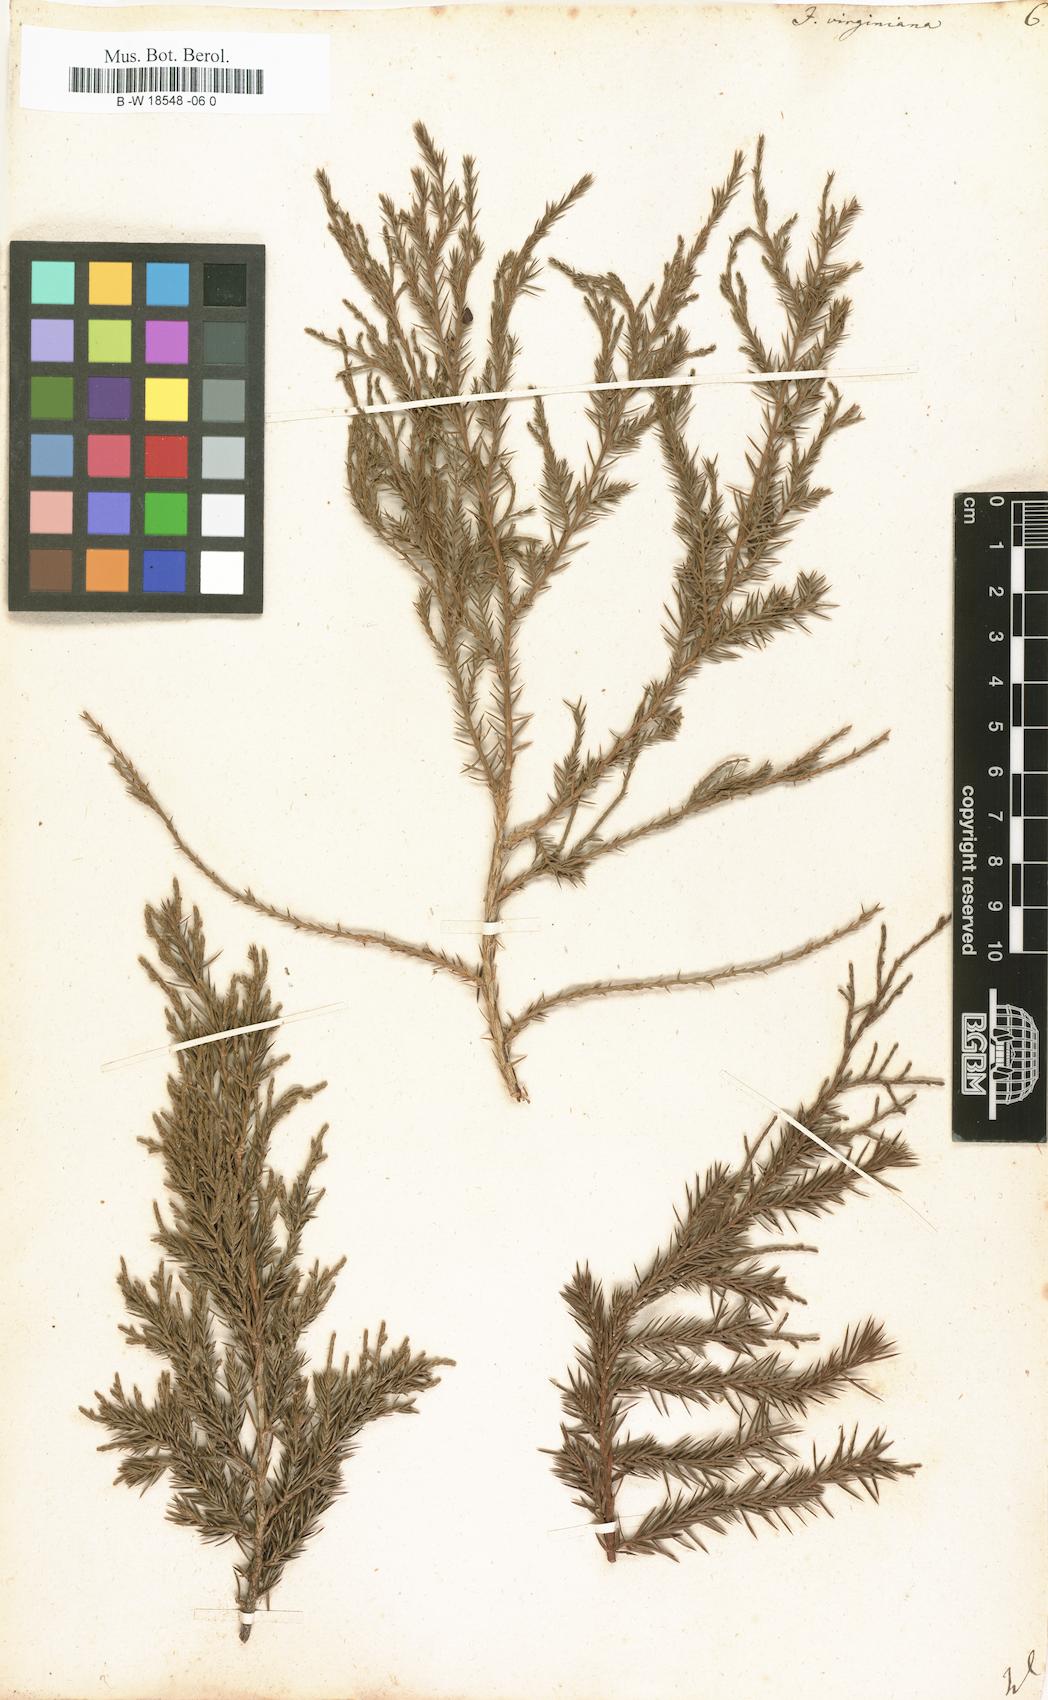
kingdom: Plantae
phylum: Tracheophyta
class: Pinopsida
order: Pinales
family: Cupressaceae
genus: Juniperus
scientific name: Juniperus virginiana
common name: Red juniper
